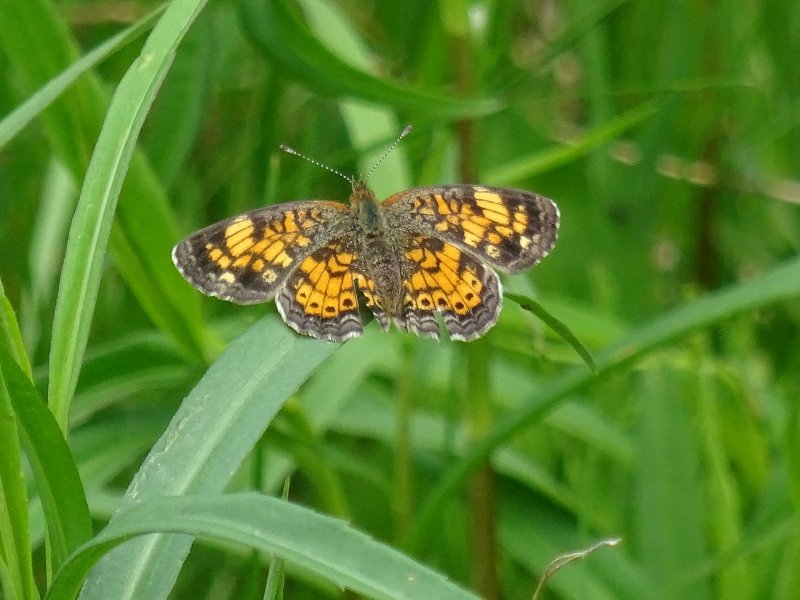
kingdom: Animalia
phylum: Arthropoda
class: Insecta
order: Lepidoptera
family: Nymphalidae
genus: Phyciodes
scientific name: Phyciodes tharos
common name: Pearl Crescent
